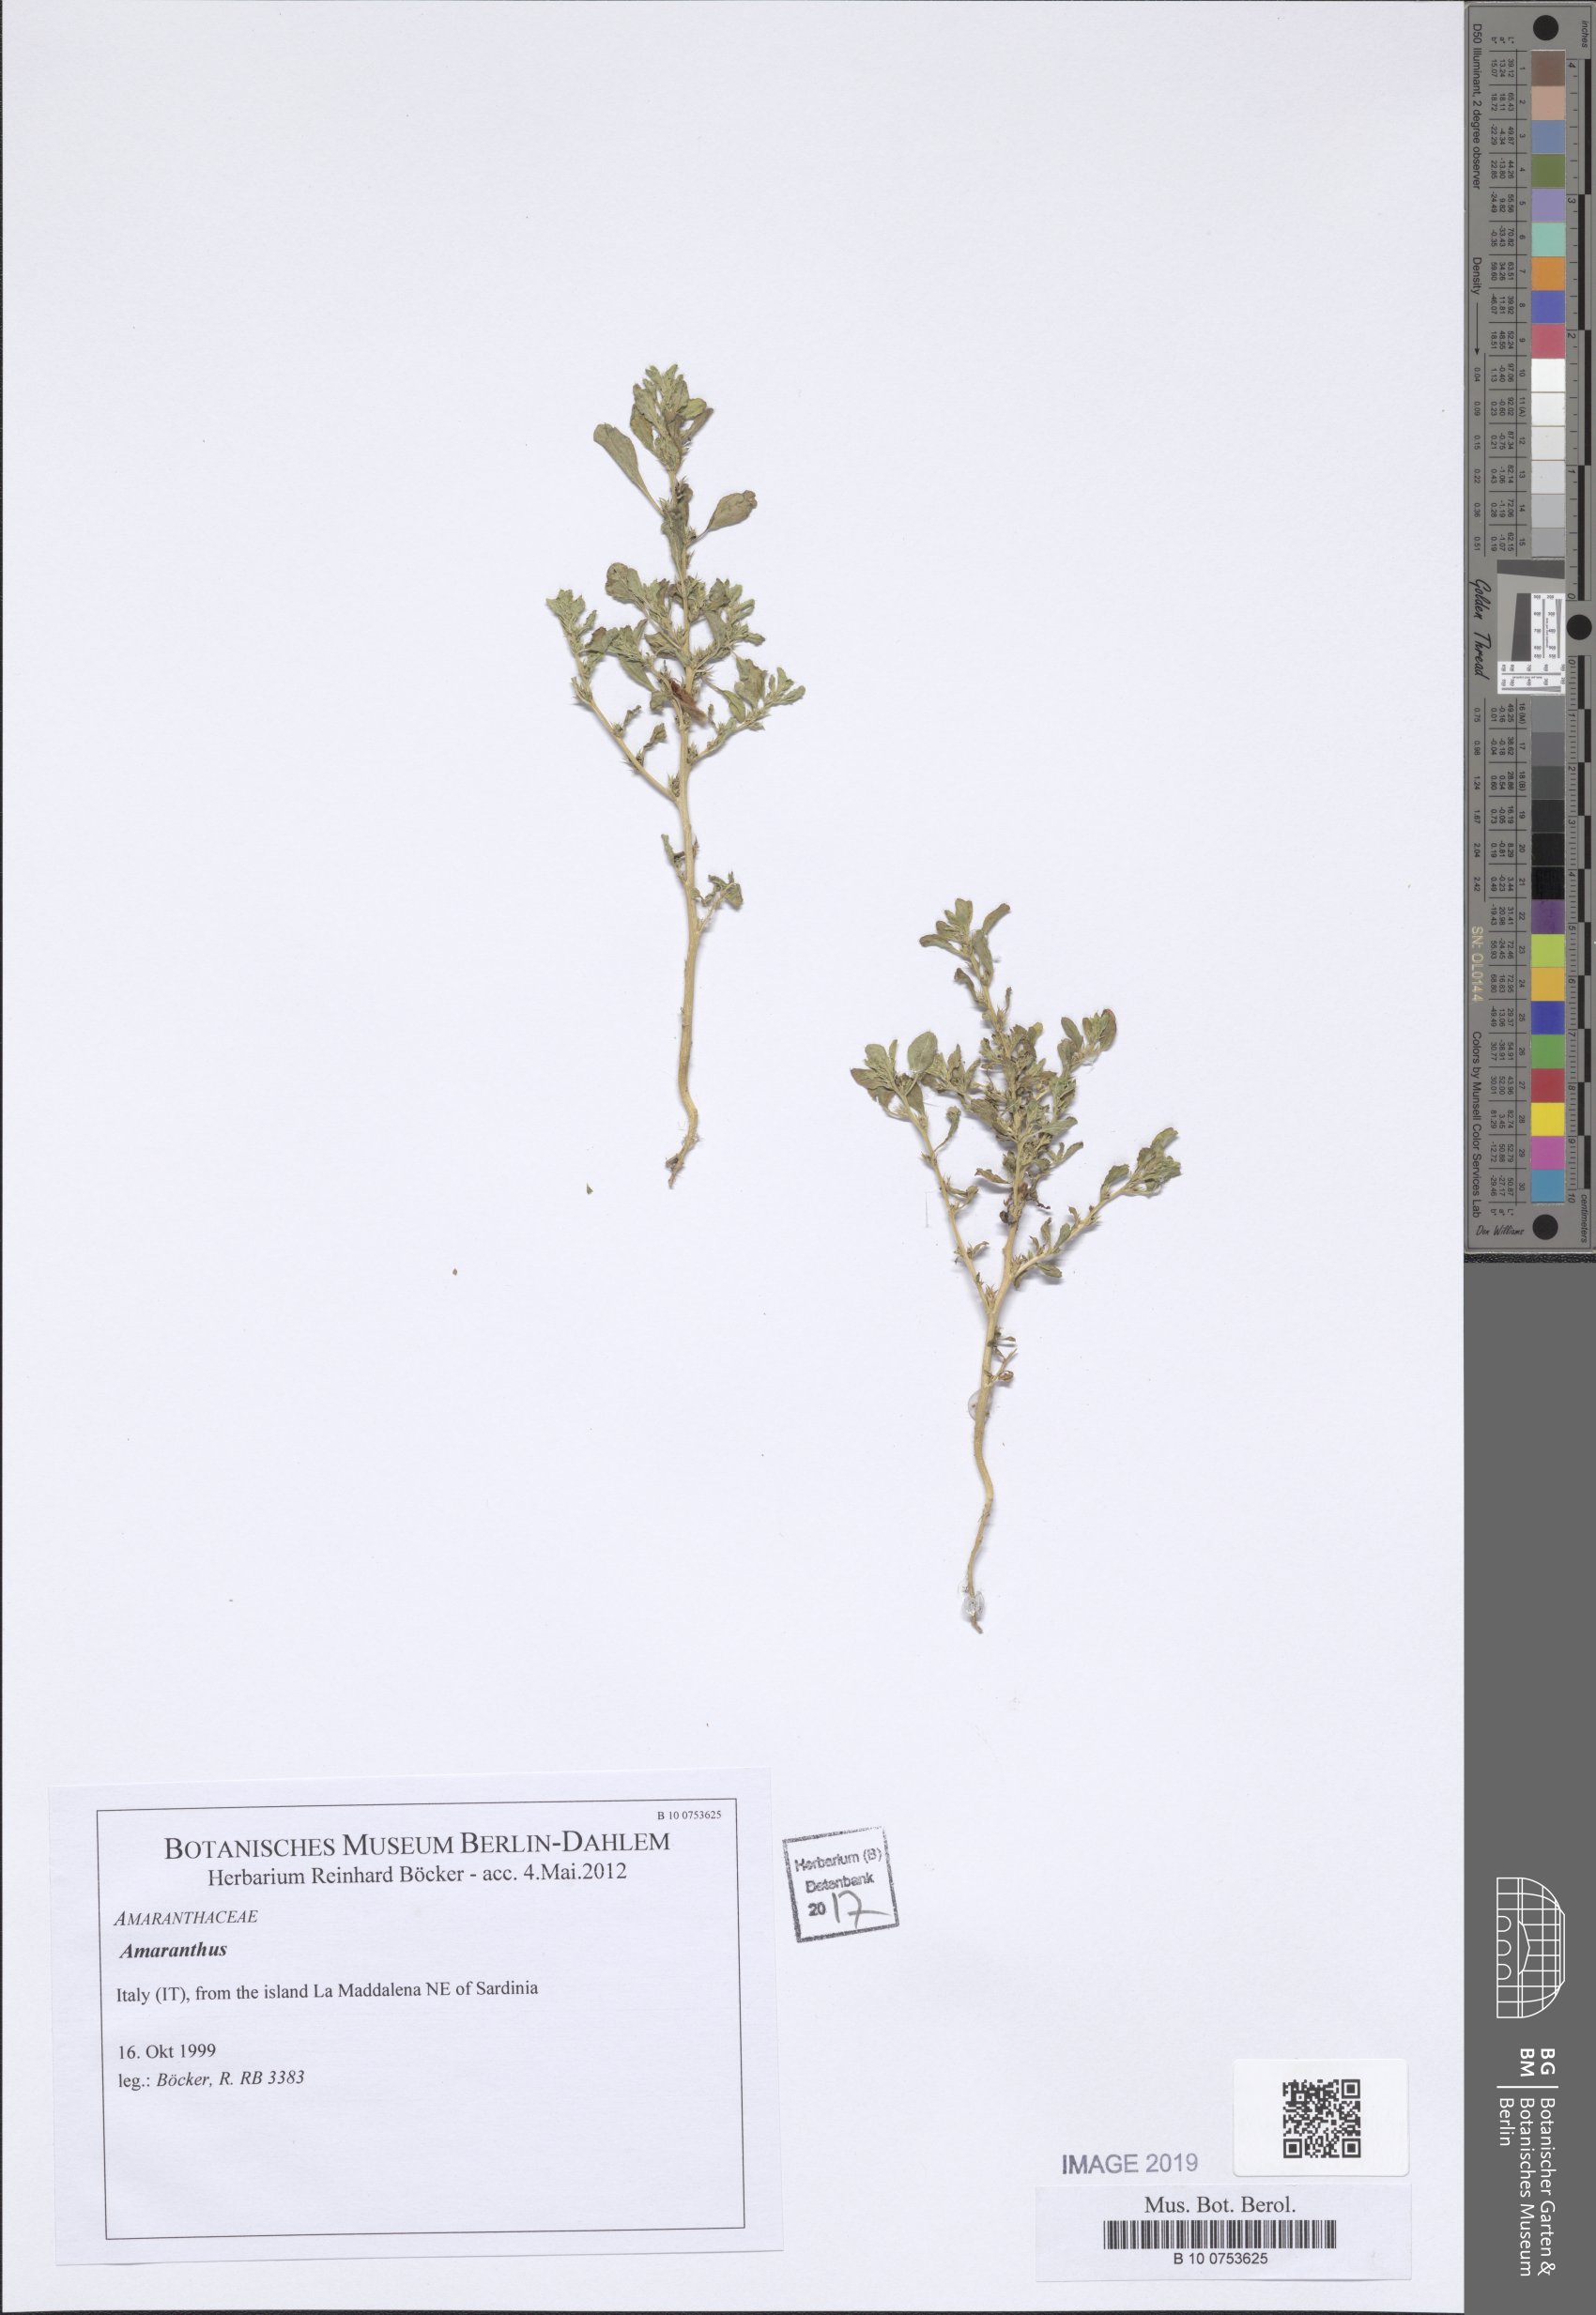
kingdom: Plantae
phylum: Tracheophyta
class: Magnoliopsida
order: Caryophyllales
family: Amaranthaceae
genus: Amaranthus
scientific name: Amaranthus
